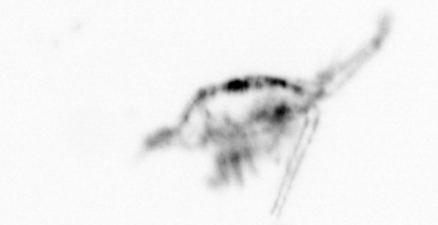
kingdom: Animalia
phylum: Arthropoda
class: Copepoda
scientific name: Copepoda
